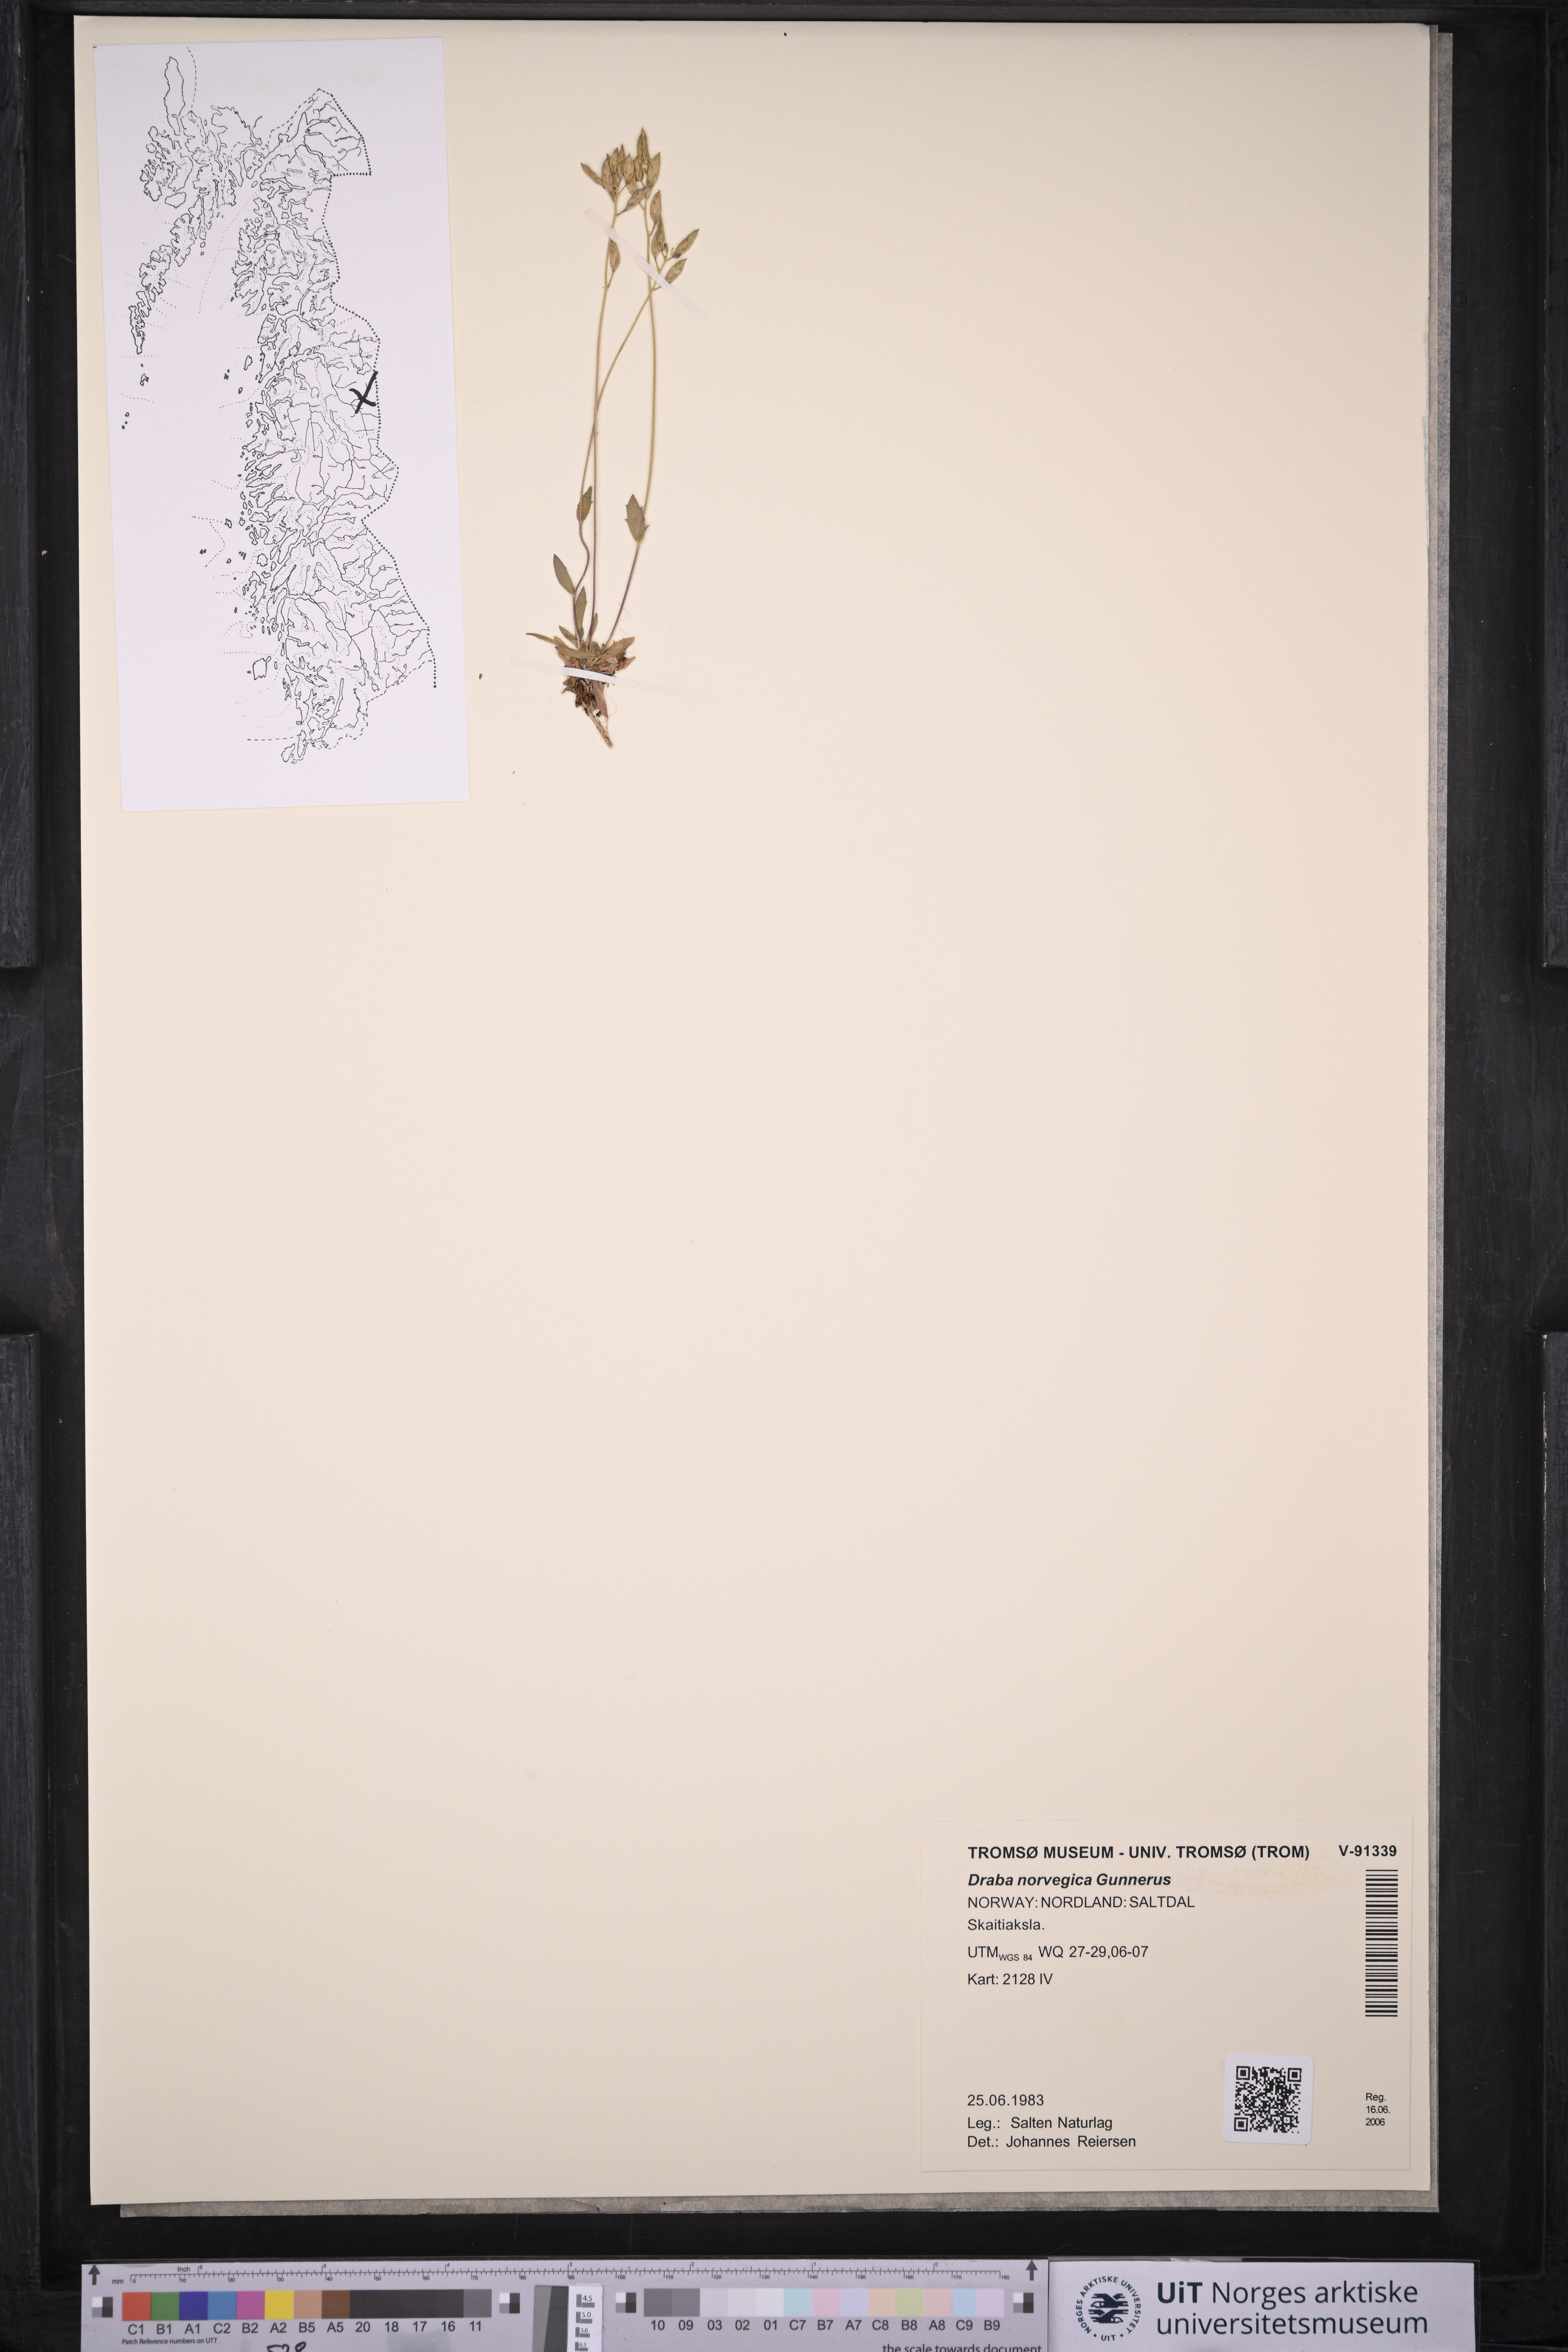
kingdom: Plantae
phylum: Tracheophyta
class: Magnoliopsida
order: Brassicales
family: Brassicaceae
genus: Draba
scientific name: Draba norvegica
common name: Rock whitlowgrass
